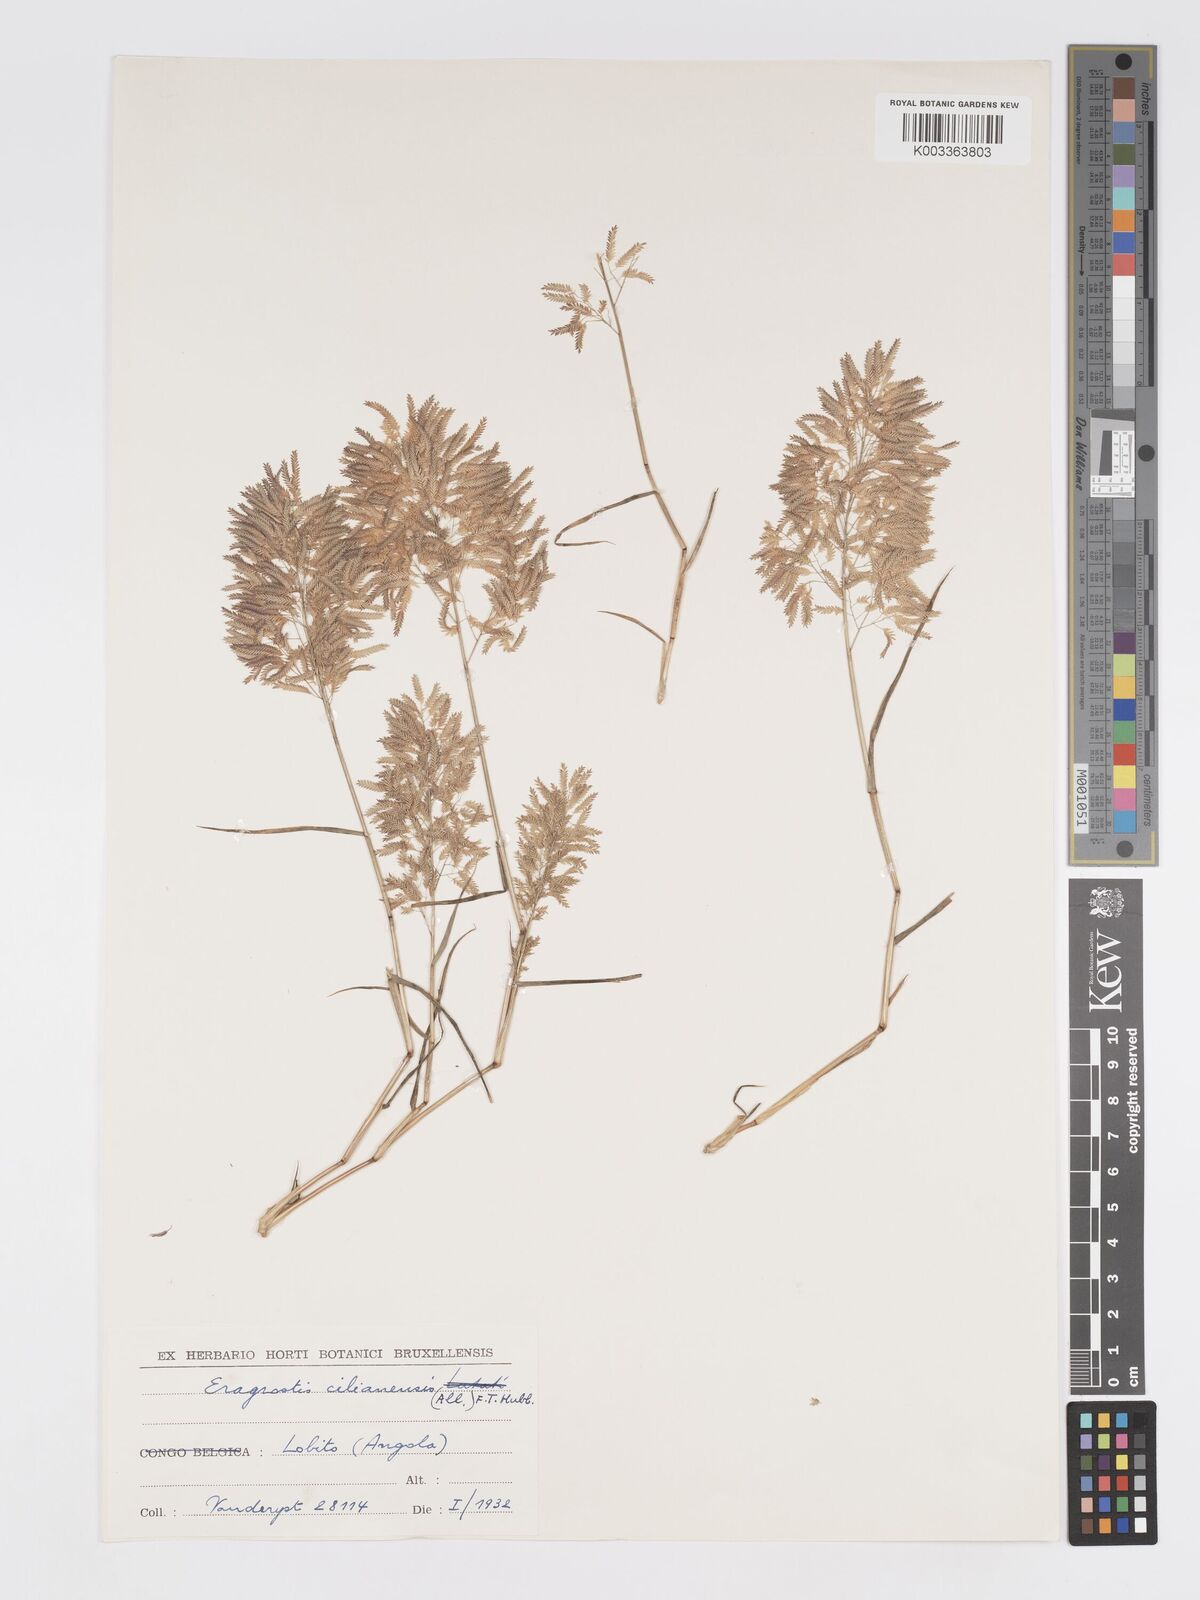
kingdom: Plantae
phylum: Tracheophyta
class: Liliopsida
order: Poales
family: Poaceae
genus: Eragrostis
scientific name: Eragrostis annulata
